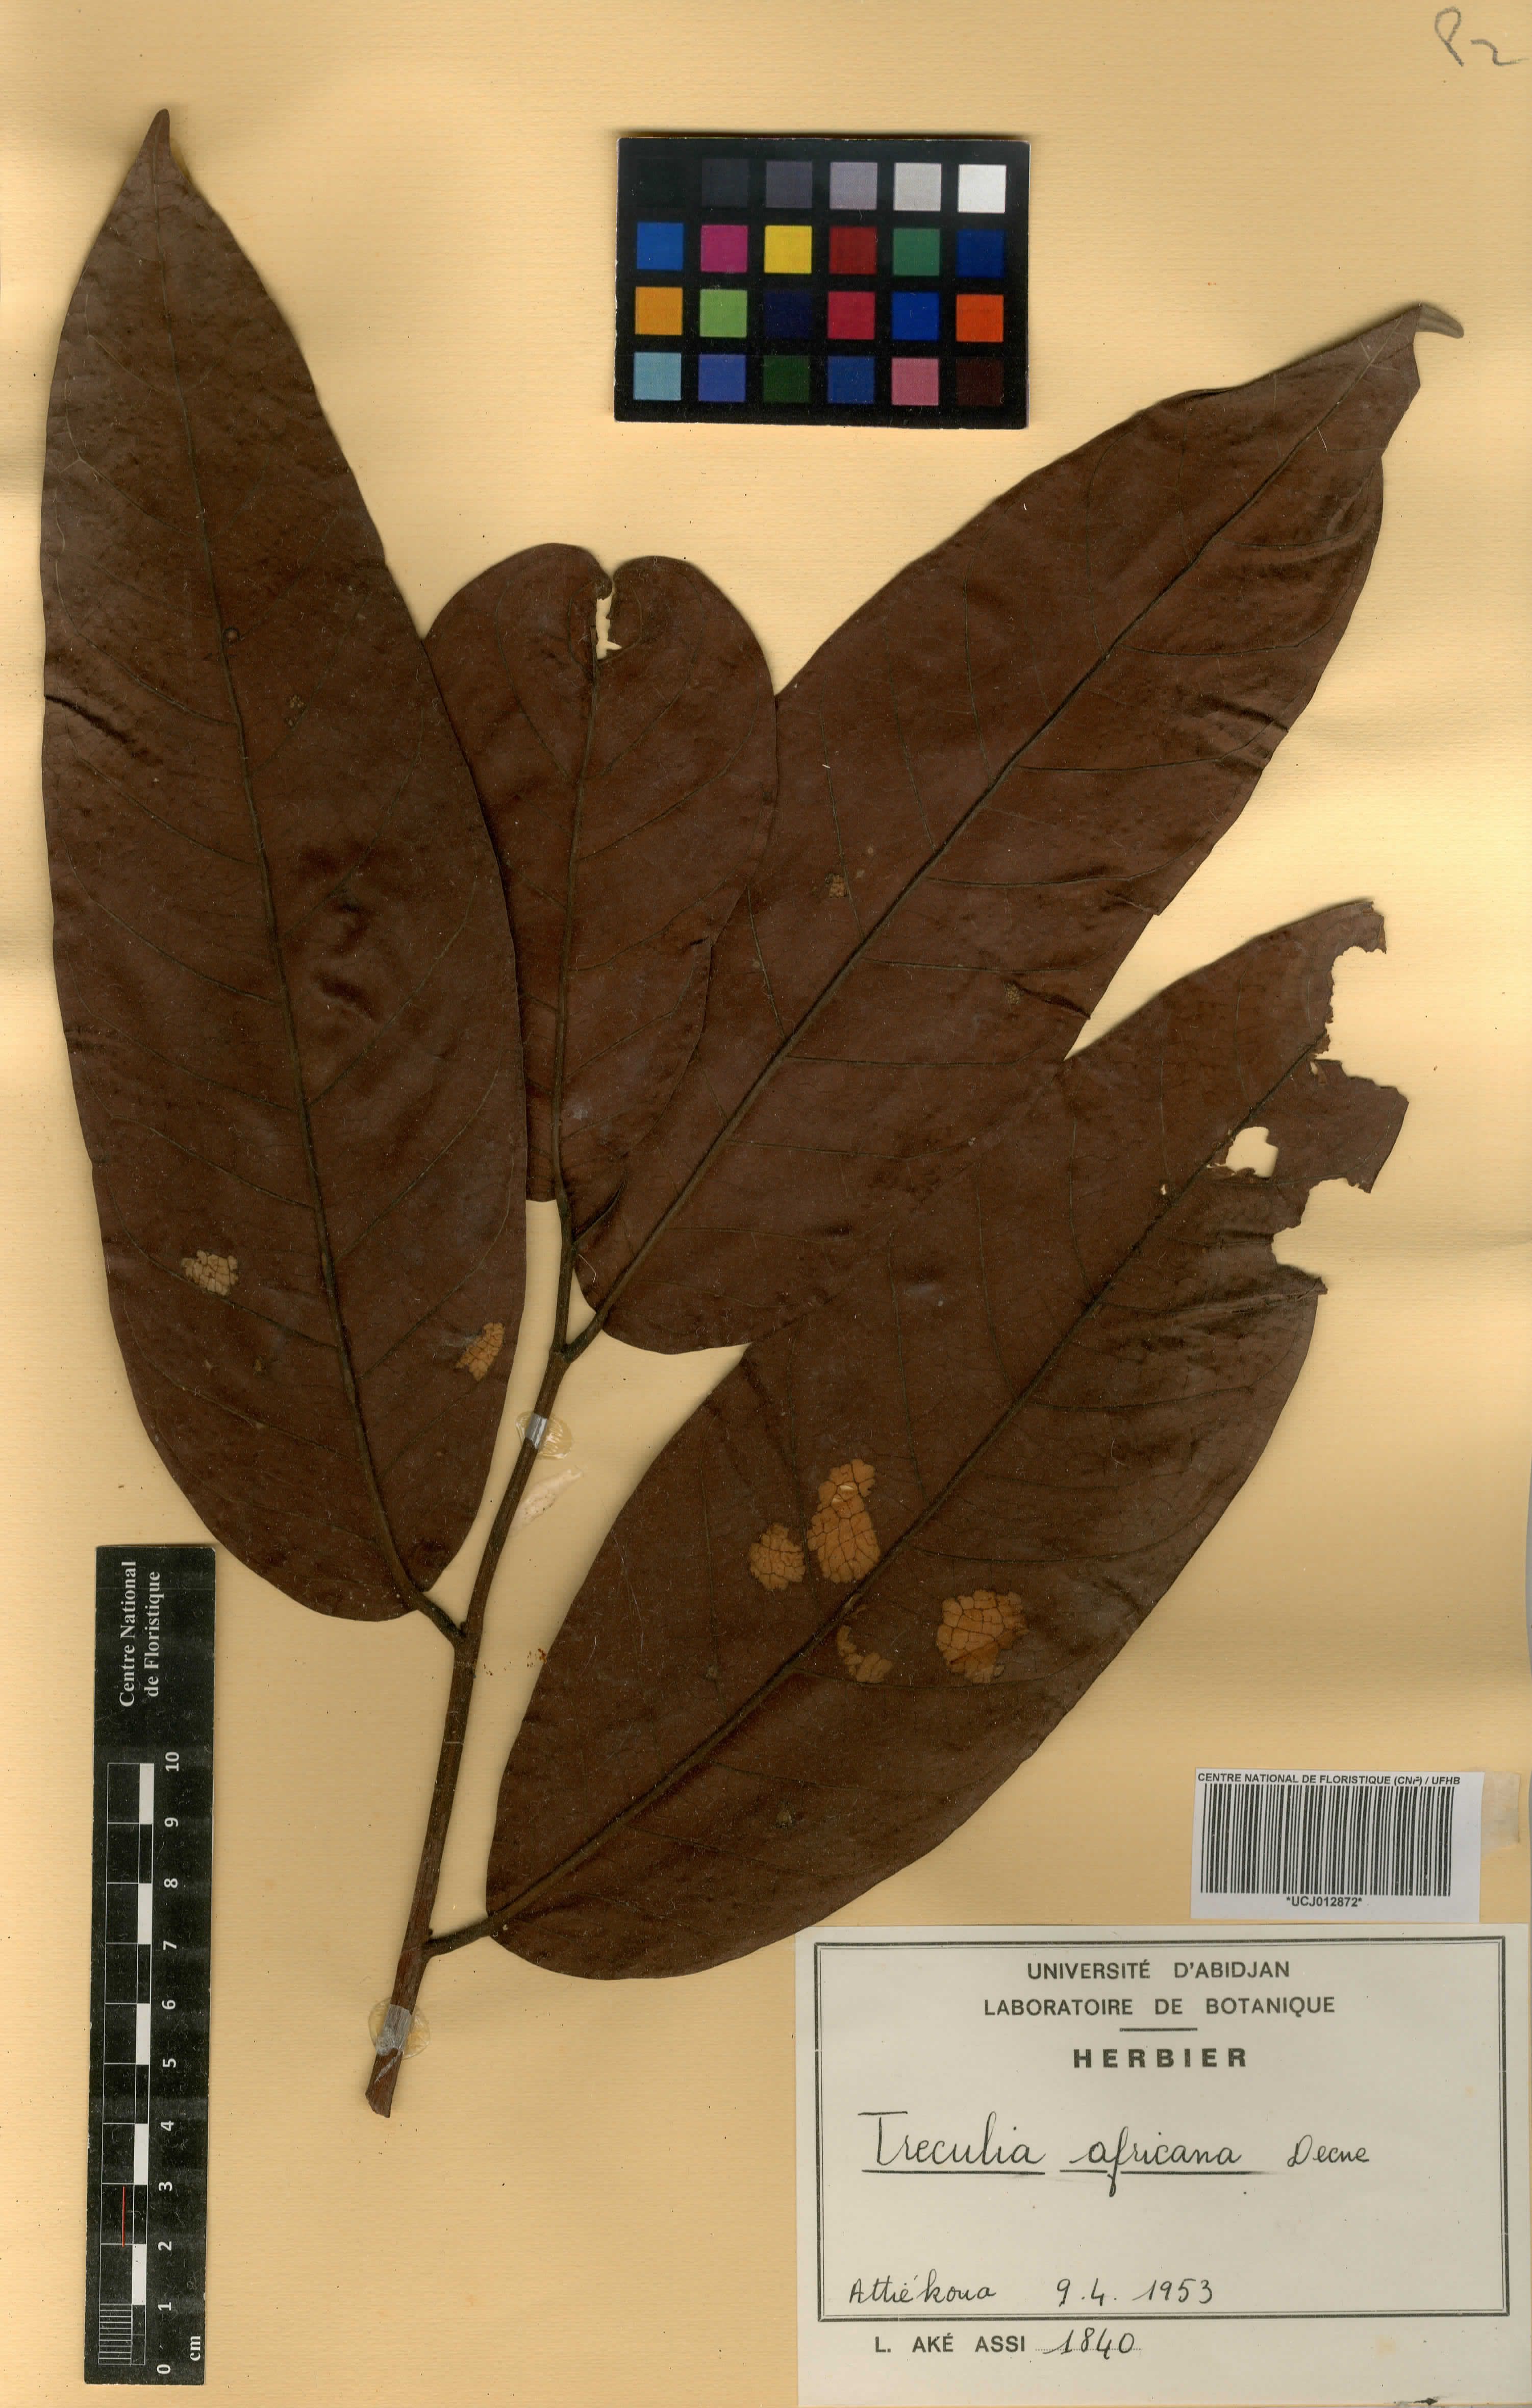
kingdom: Plantae
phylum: Tracheophyta
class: Magnoliopsida
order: Rosales
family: Moraceae
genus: Treculia
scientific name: Treculia africana
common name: African breadfruit
